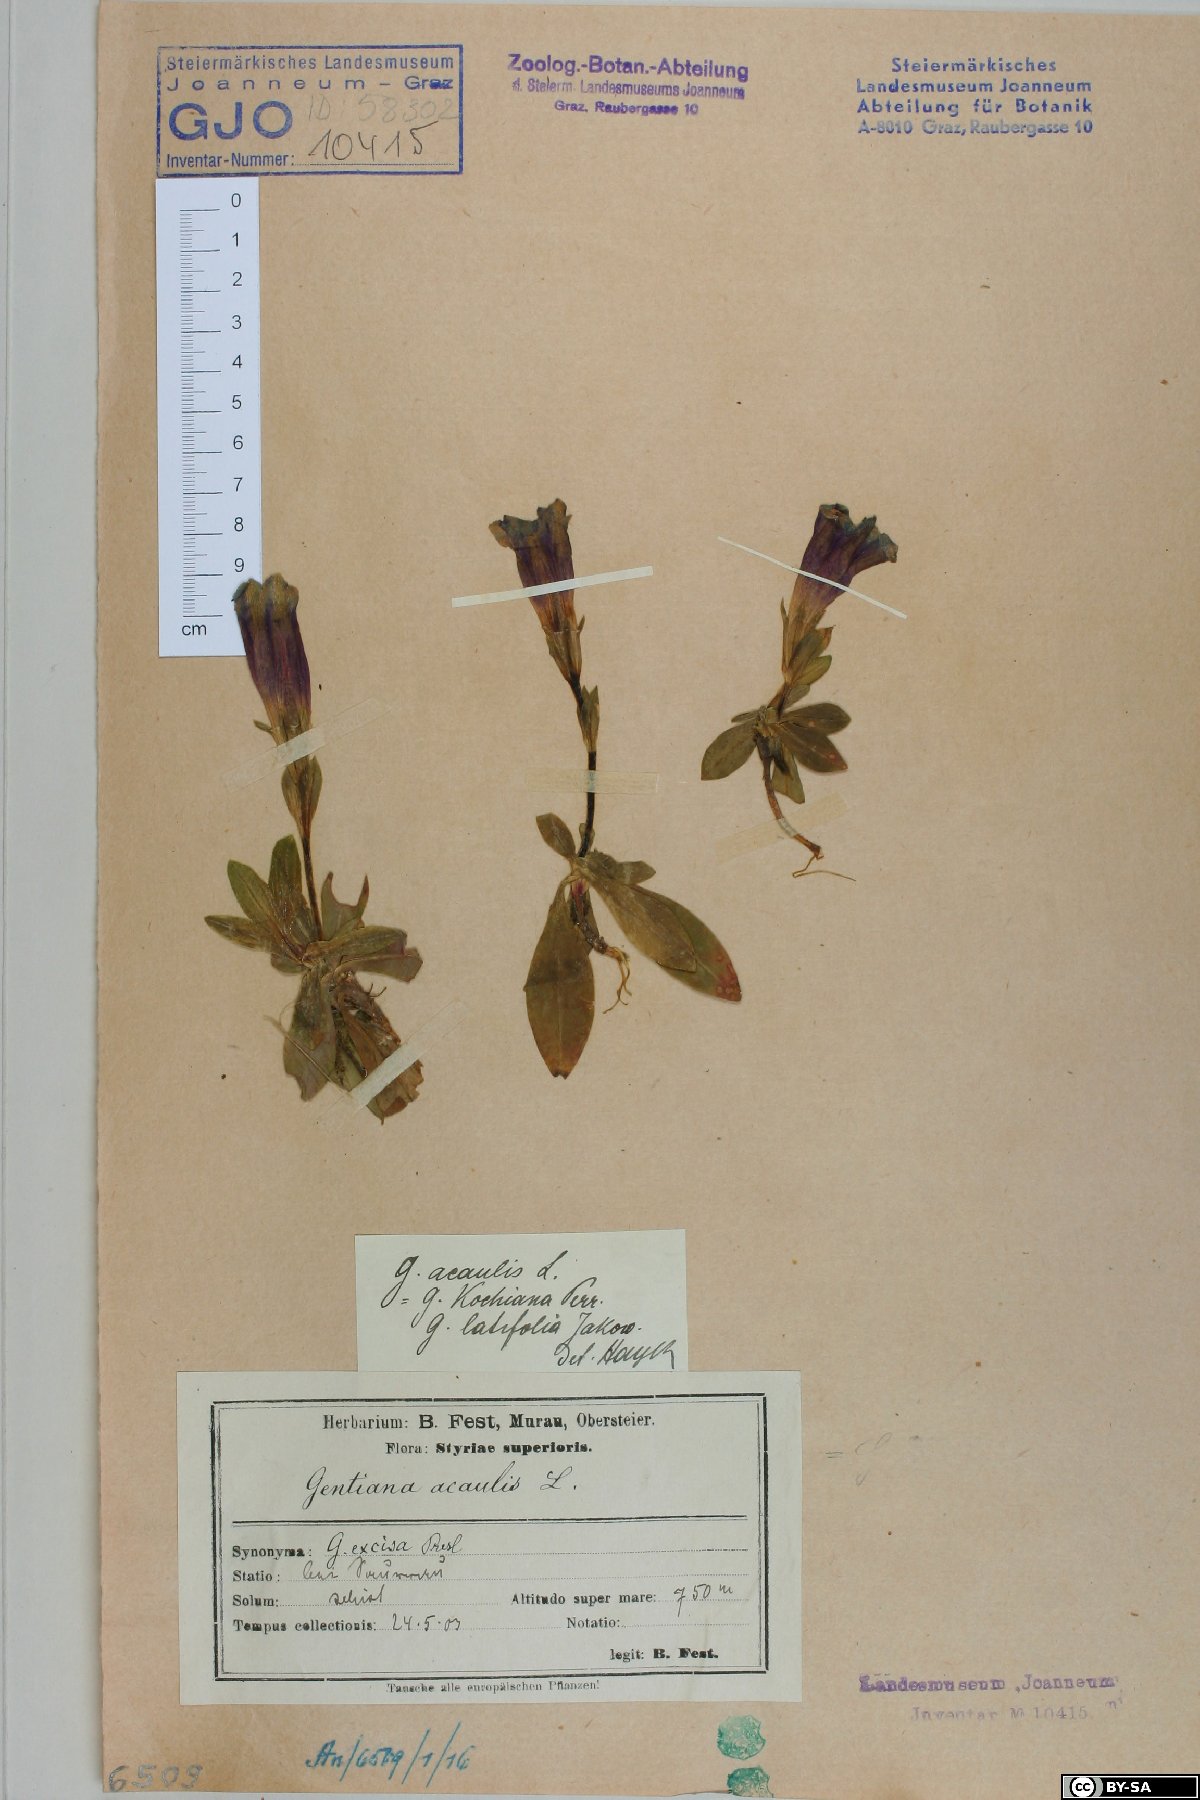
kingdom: Plantae
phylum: Tracheophyta
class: Magnoliopsida
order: Gentianales
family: Gentianaceae
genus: Gentiana
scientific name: Gentiana acaulis
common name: Trumpet gentian
